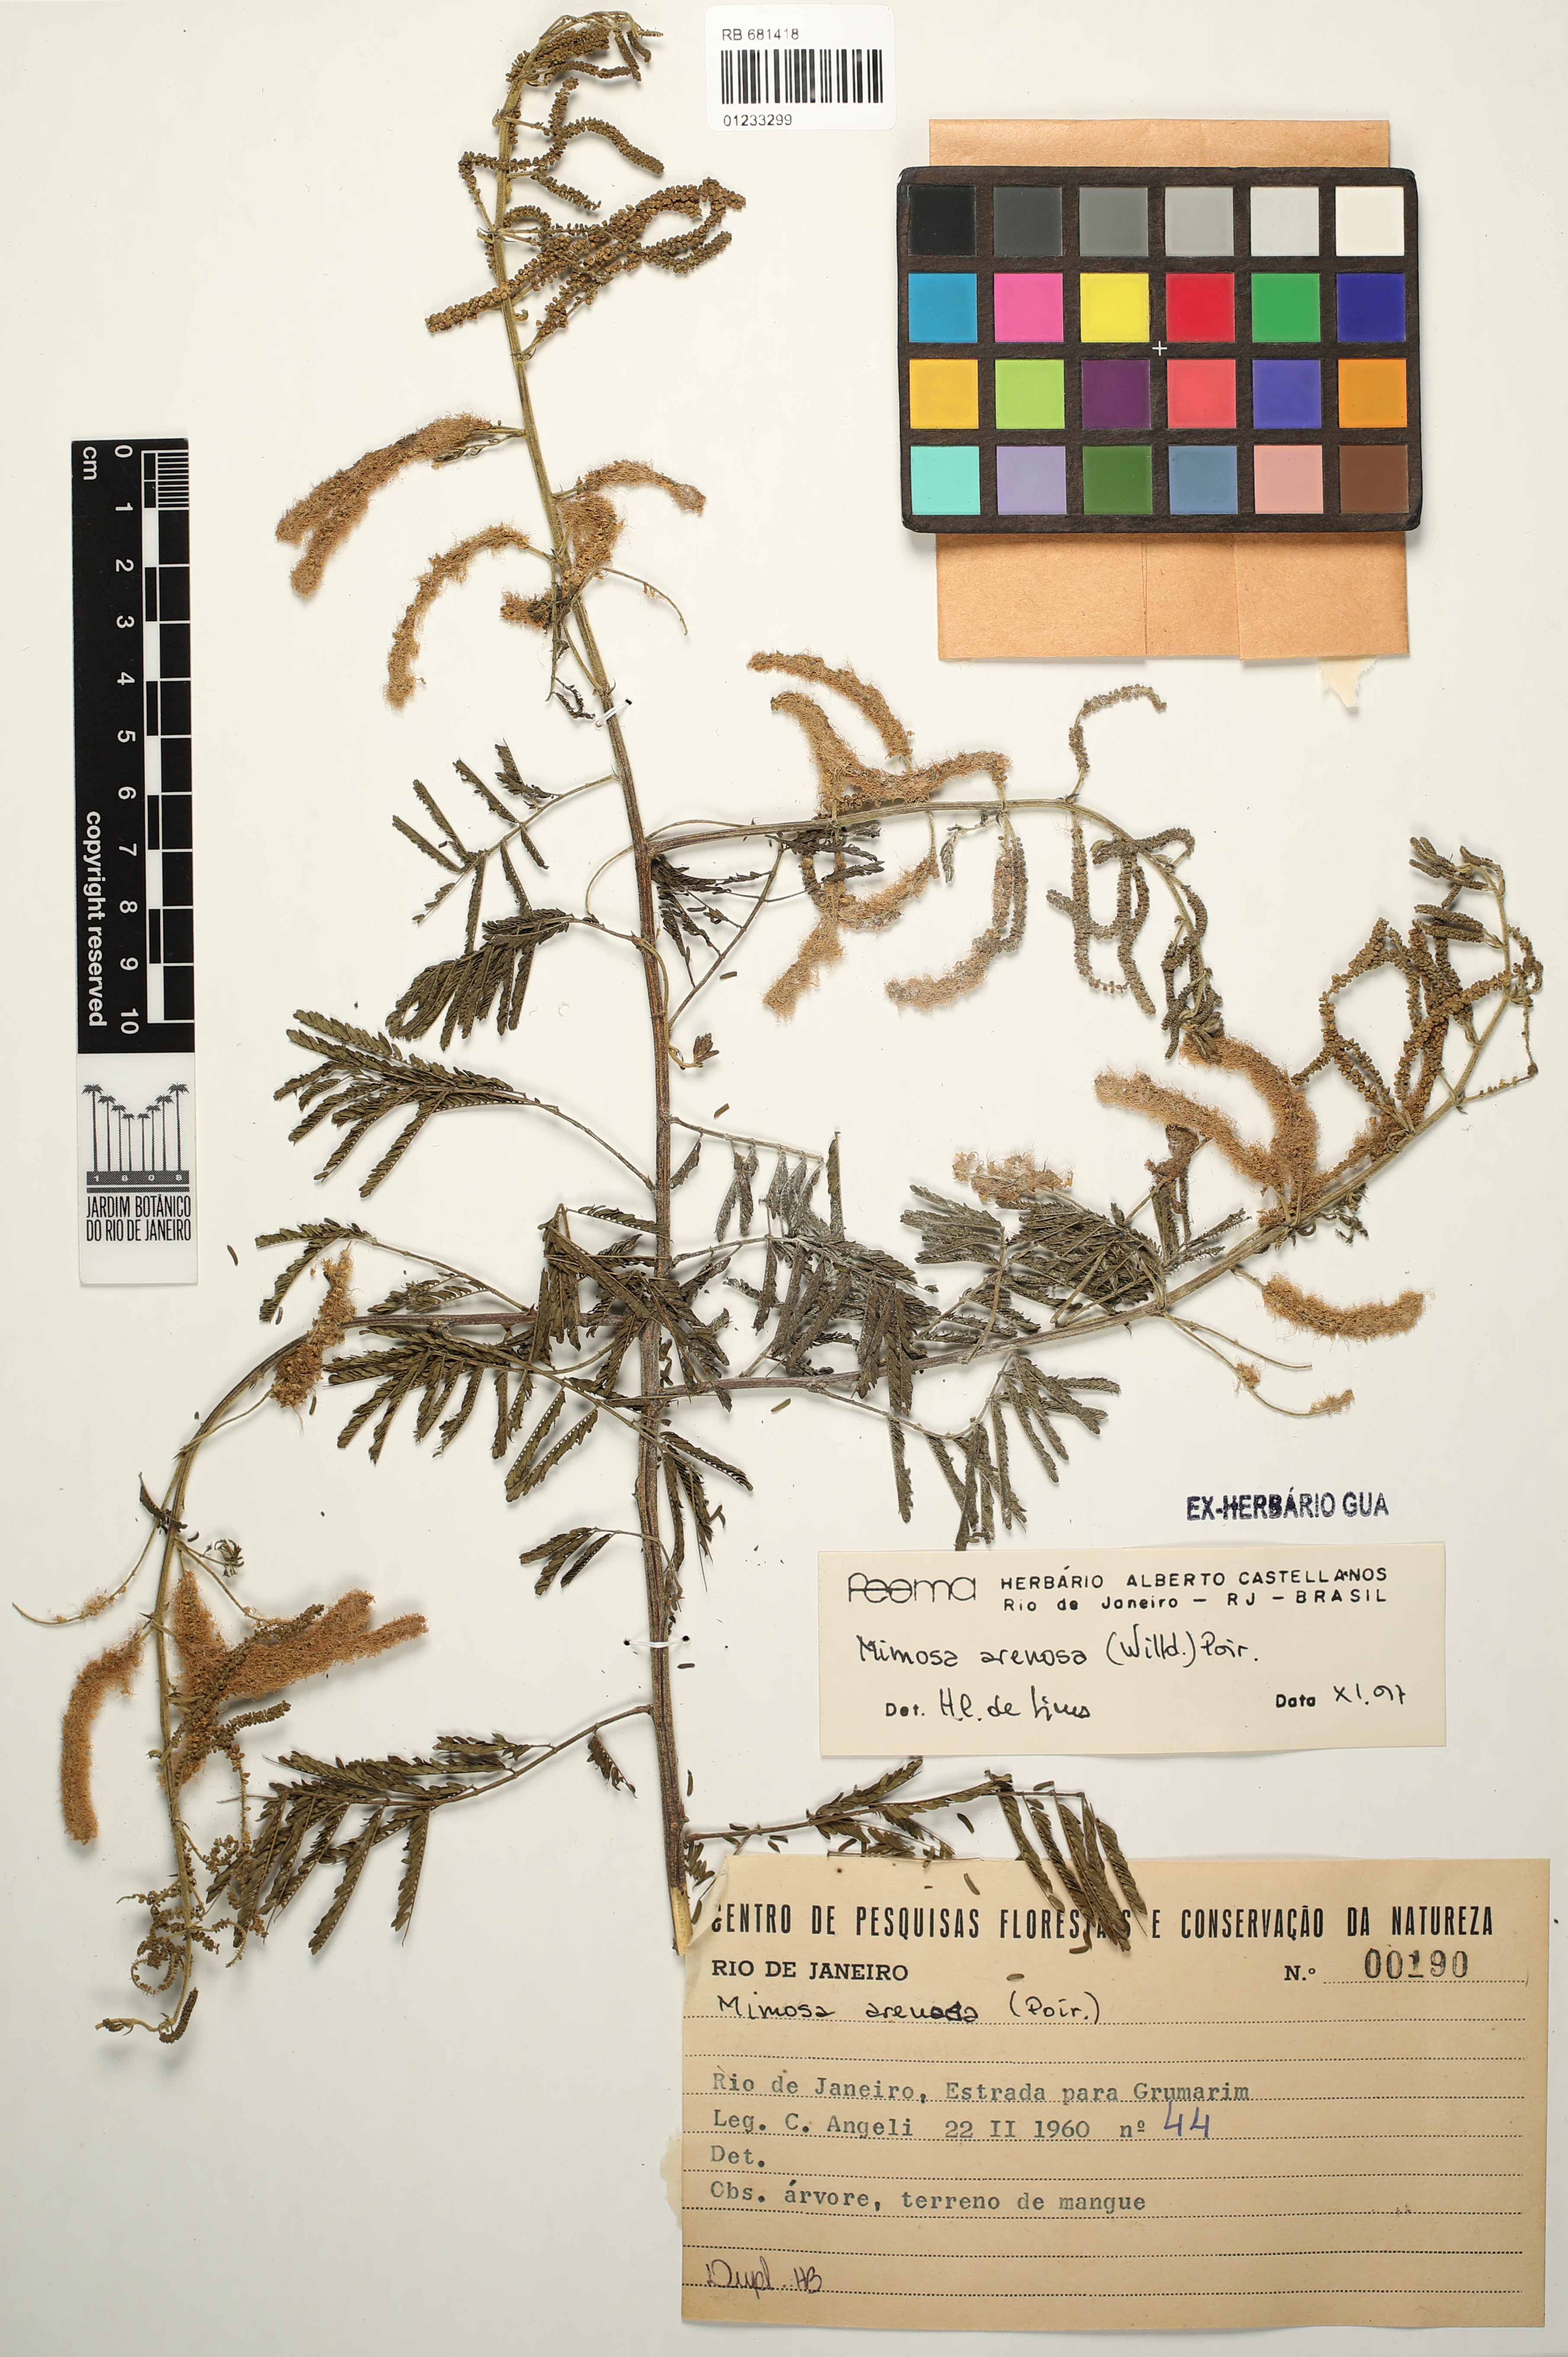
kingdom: Plantae
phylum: Tracheophyta
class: Magnoliopsida
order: Fabales
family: Fabaceae
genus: Mimosa
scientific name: Mimosa arenosa
